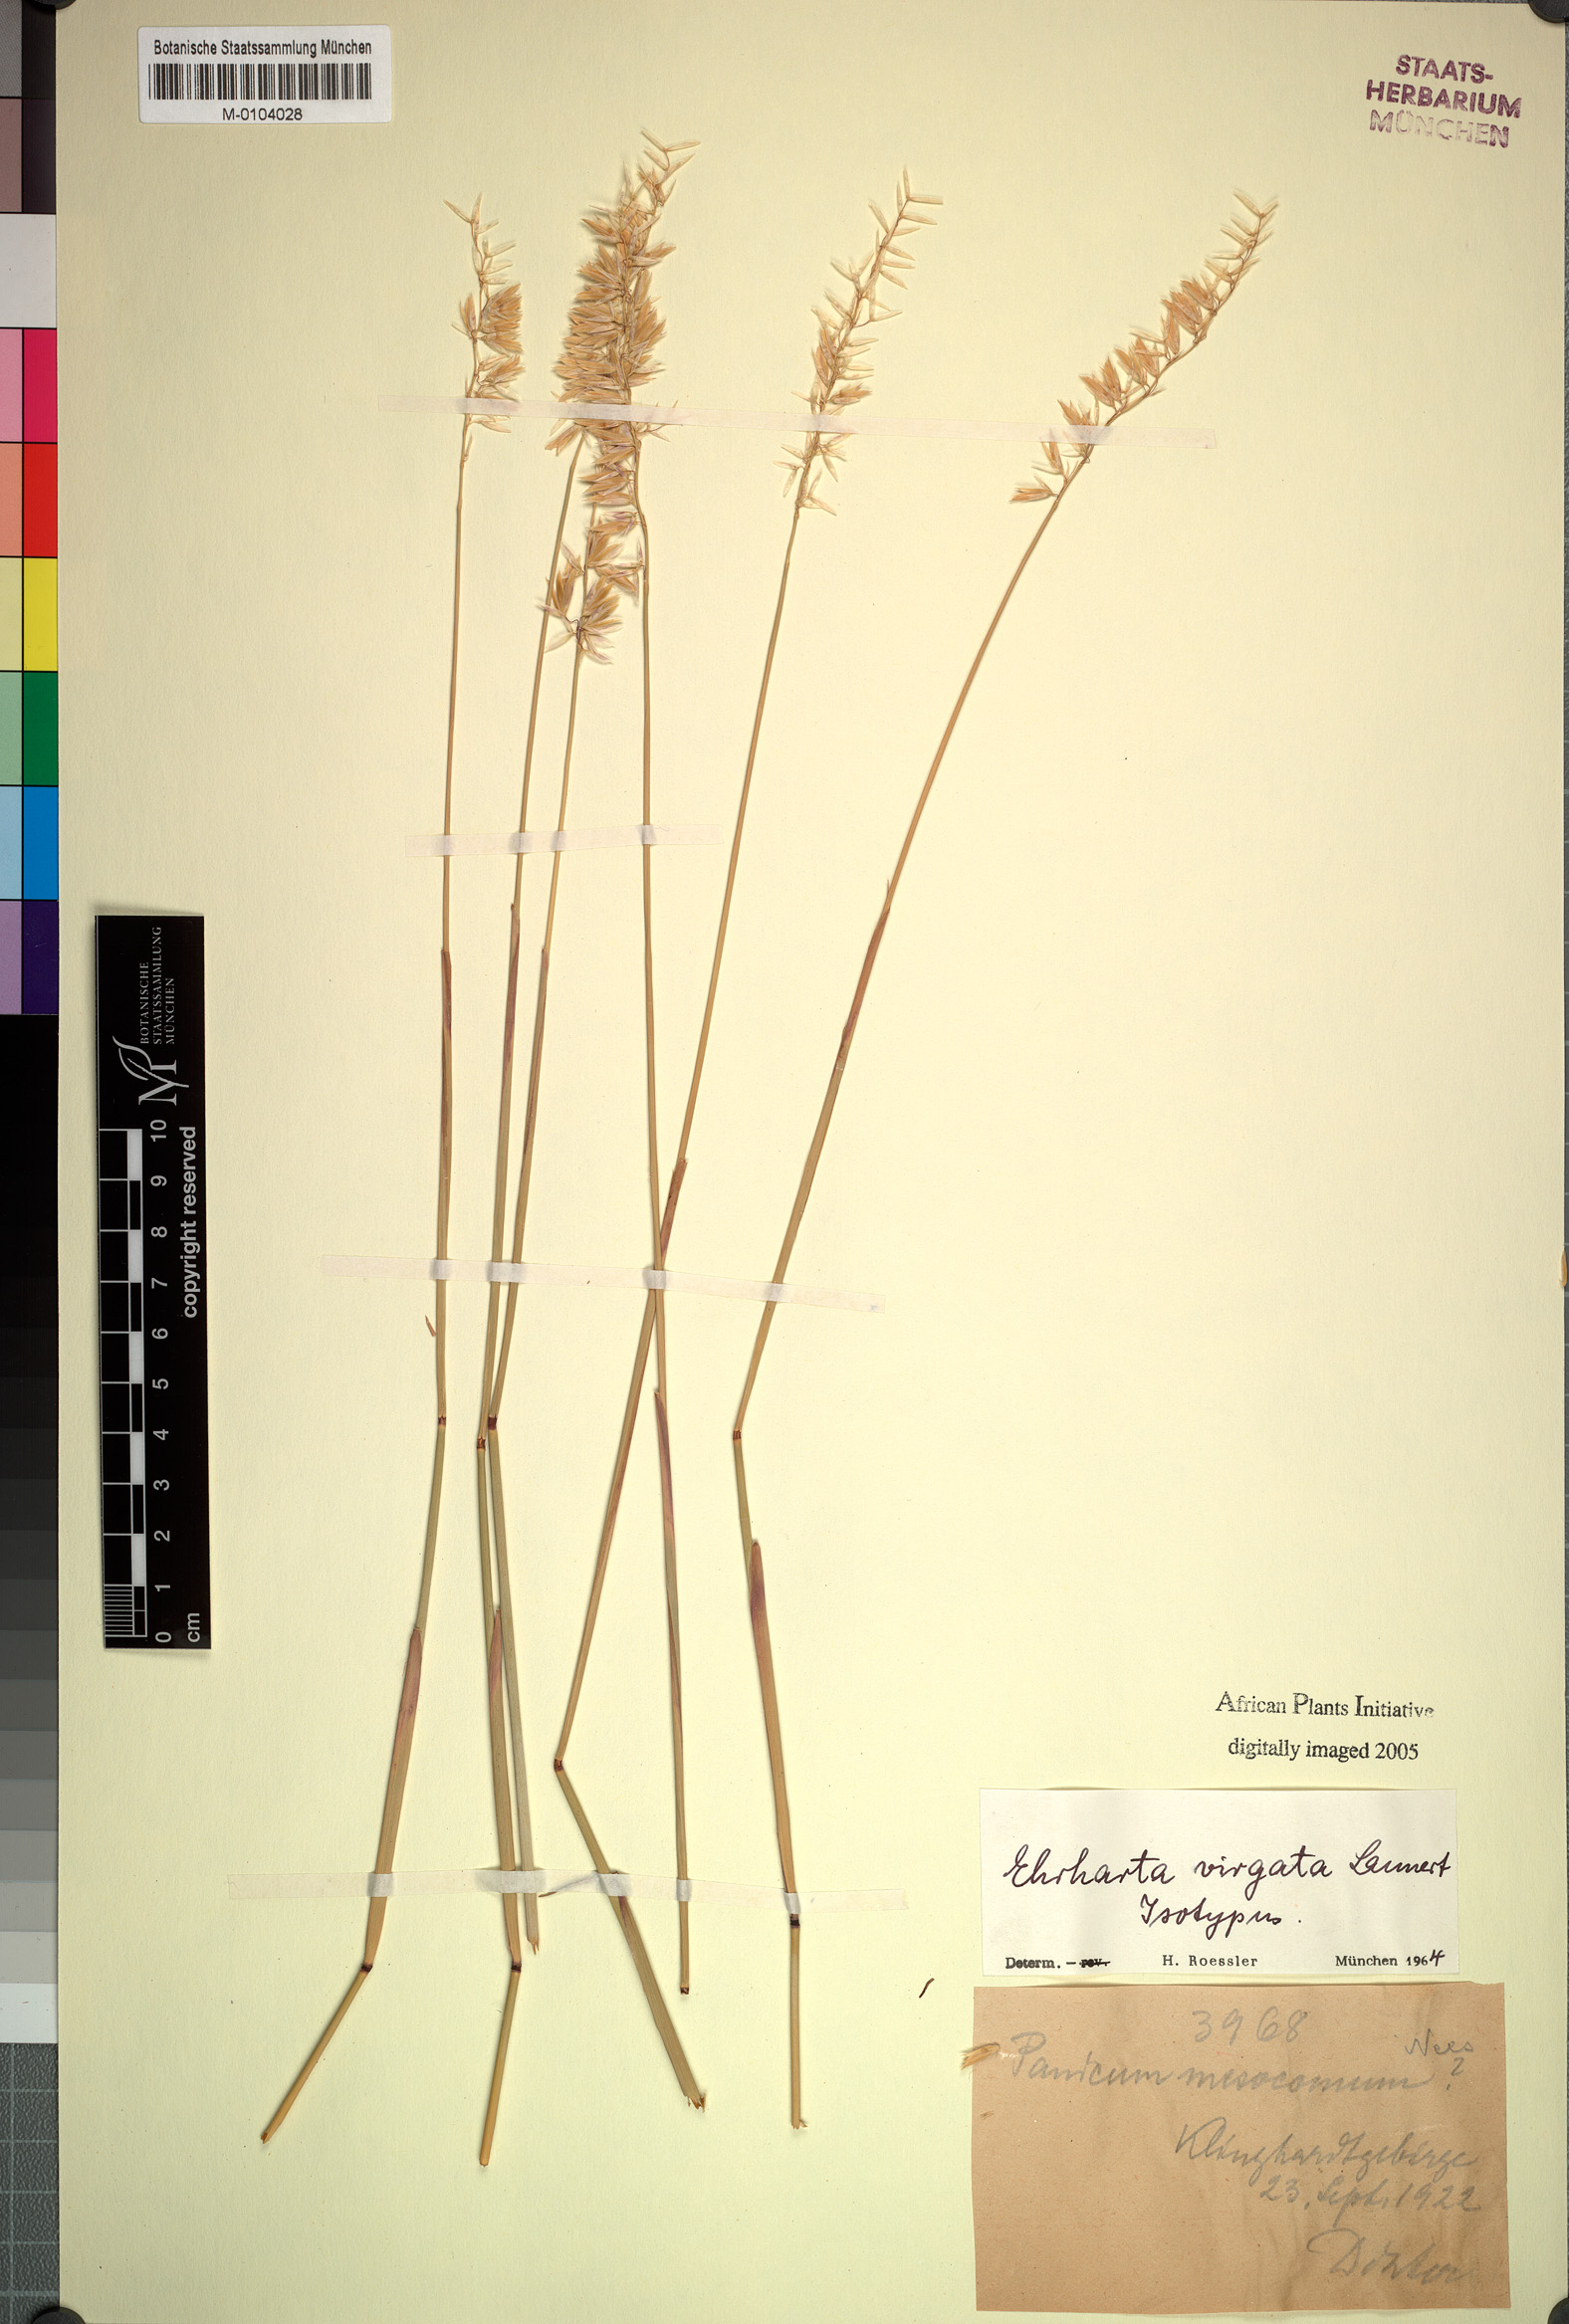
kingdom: Plantae
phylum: Tracheophyta
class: Liliopsida
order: Poales
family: Poaceae
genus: Ehrharta
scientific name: Ehrharta thunbergii
